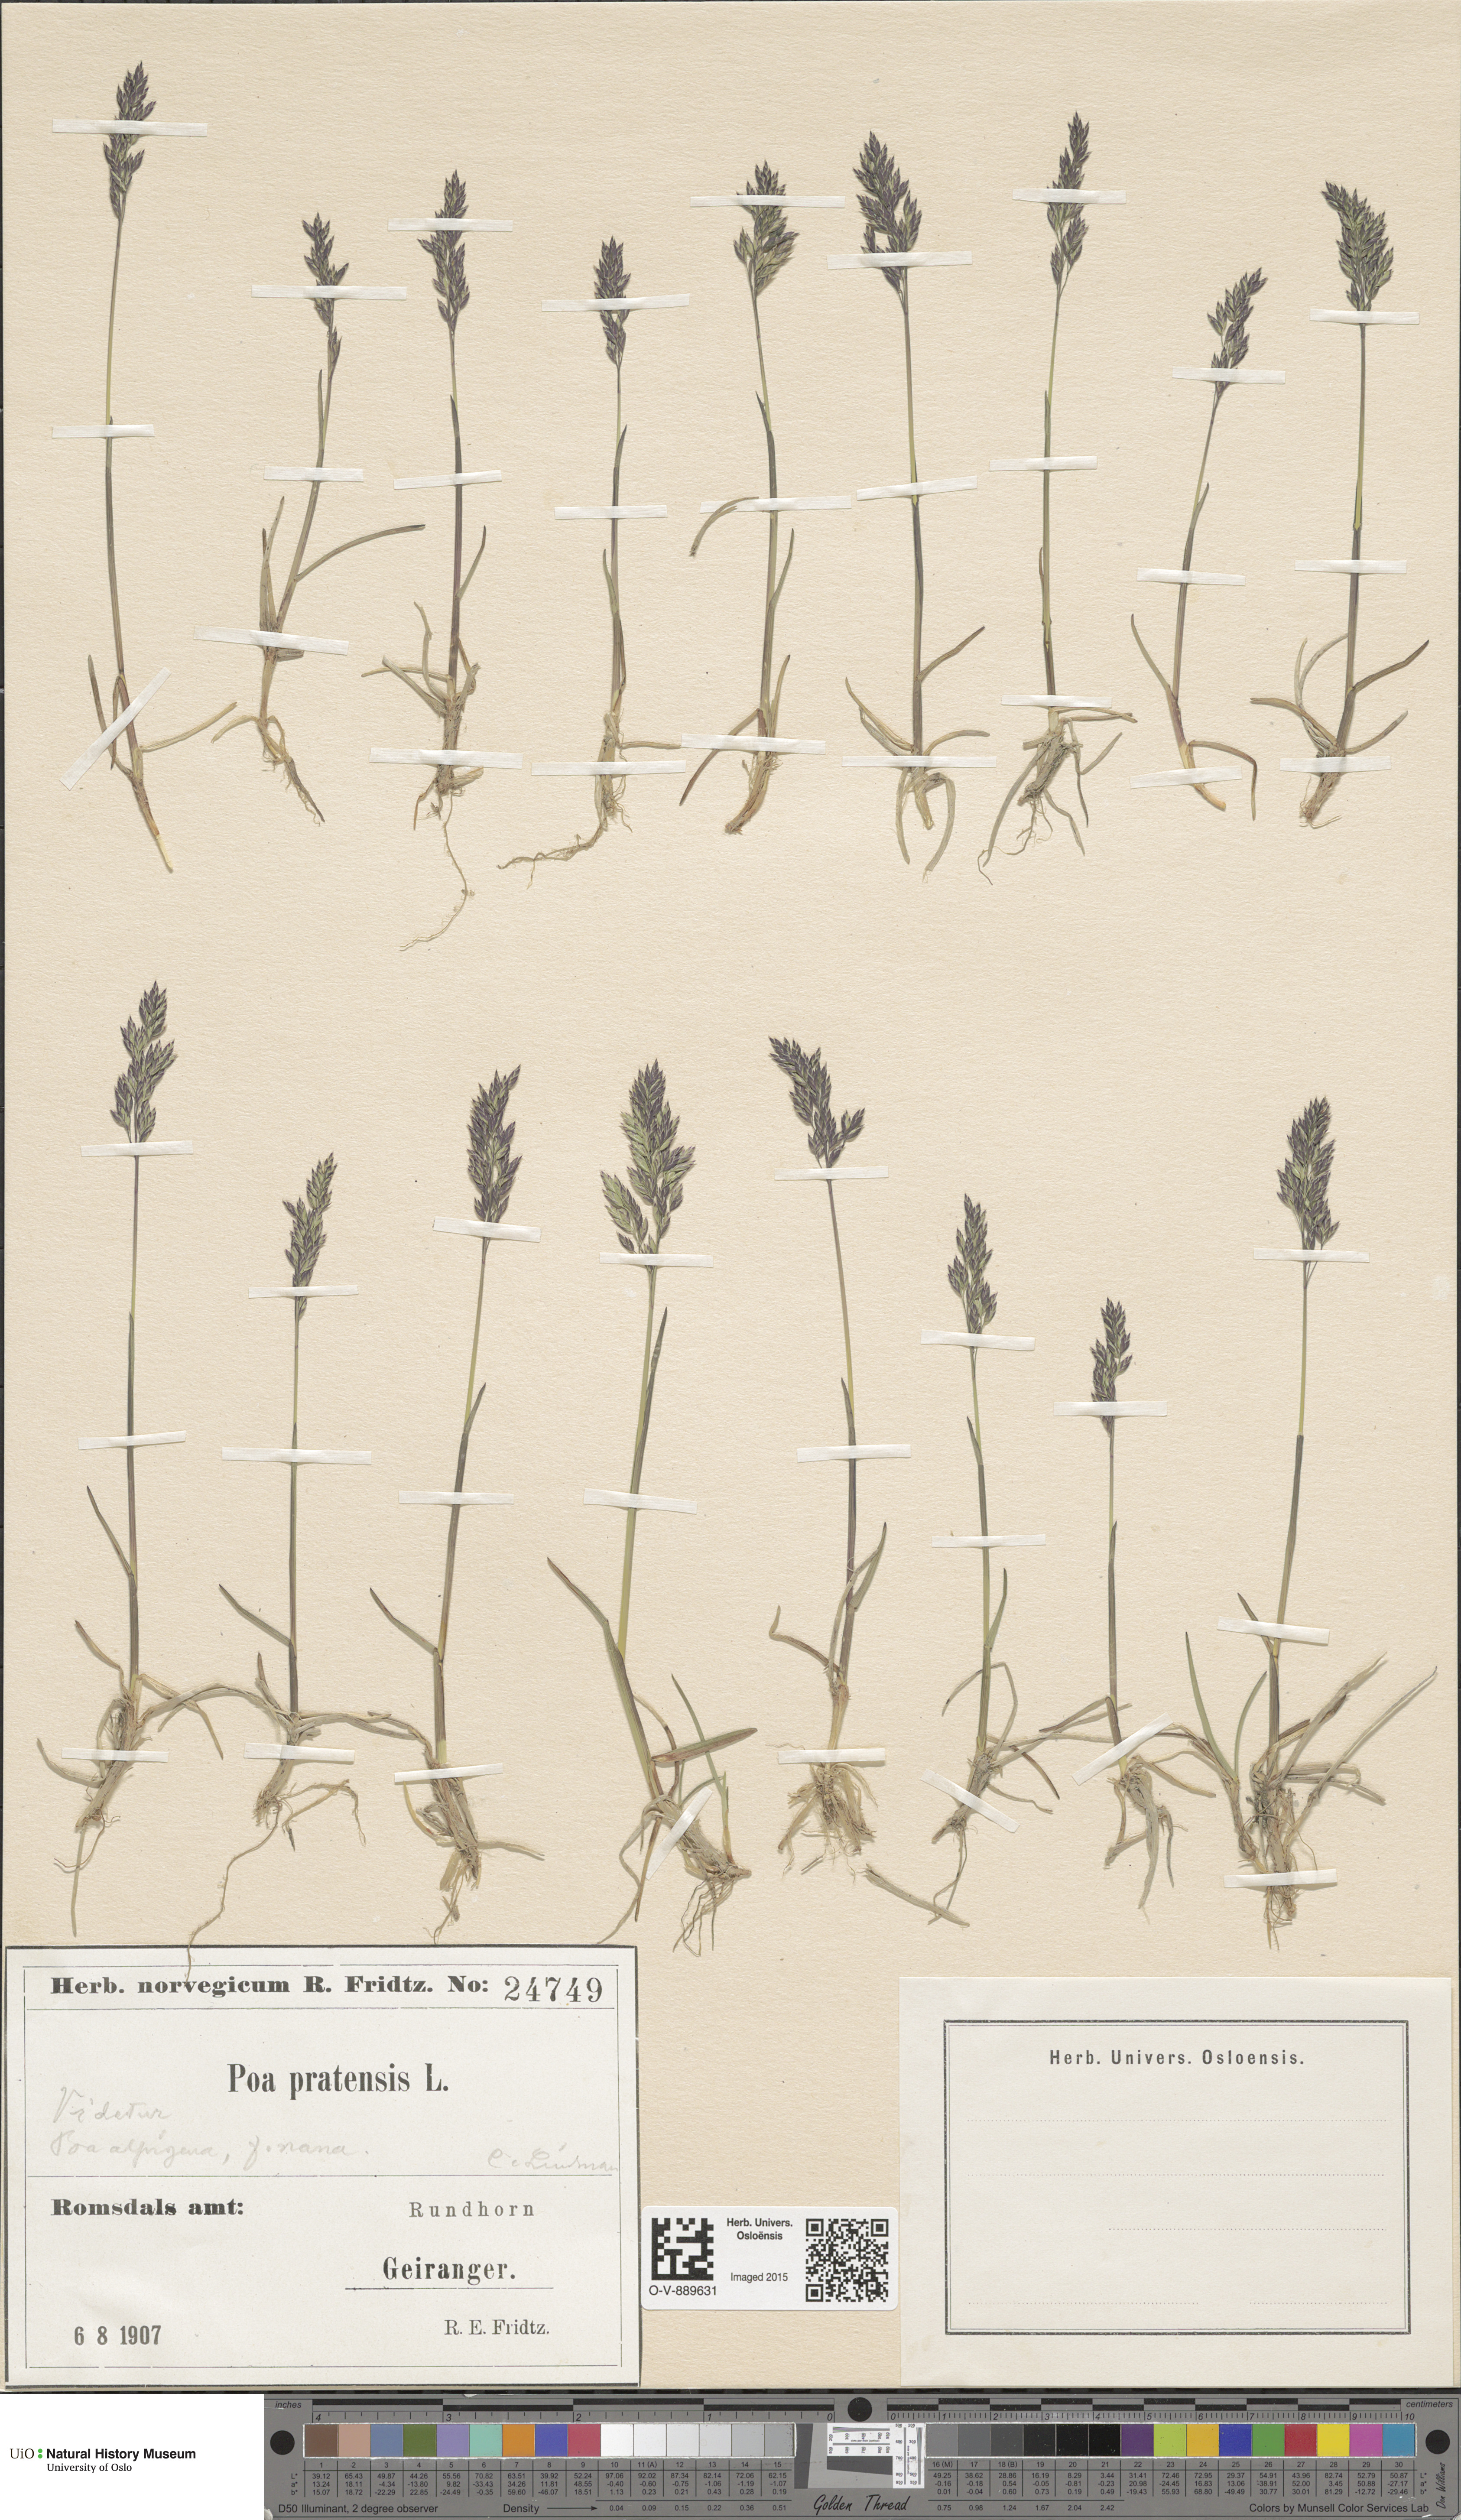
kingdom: Plantae
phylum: Tracheophyta
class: Liliopsida
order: Poales
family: Poaceae
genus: Poa
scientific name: Poa alpigena
